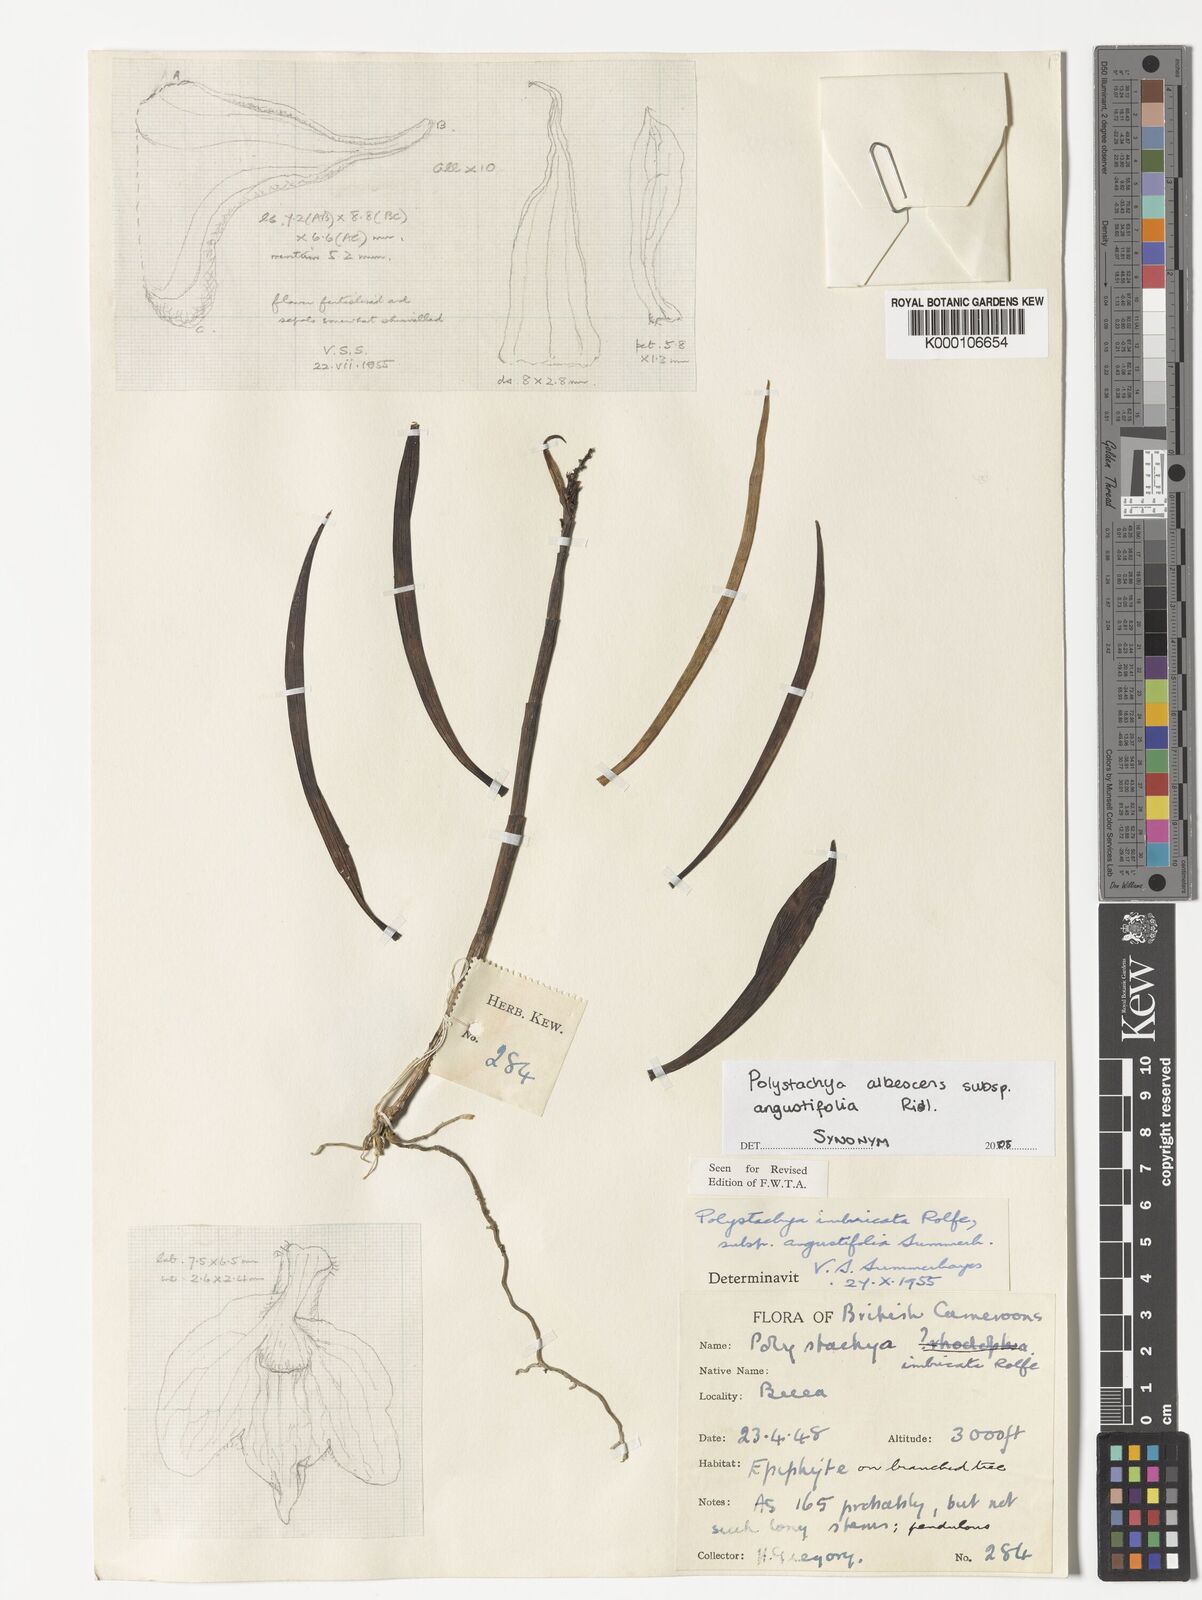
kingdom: Plantae
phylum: Tracheophyta
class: Liliopsida
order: Asparagales
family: Orchidaceae
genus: Polystachya
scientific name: Polystachya albescens
